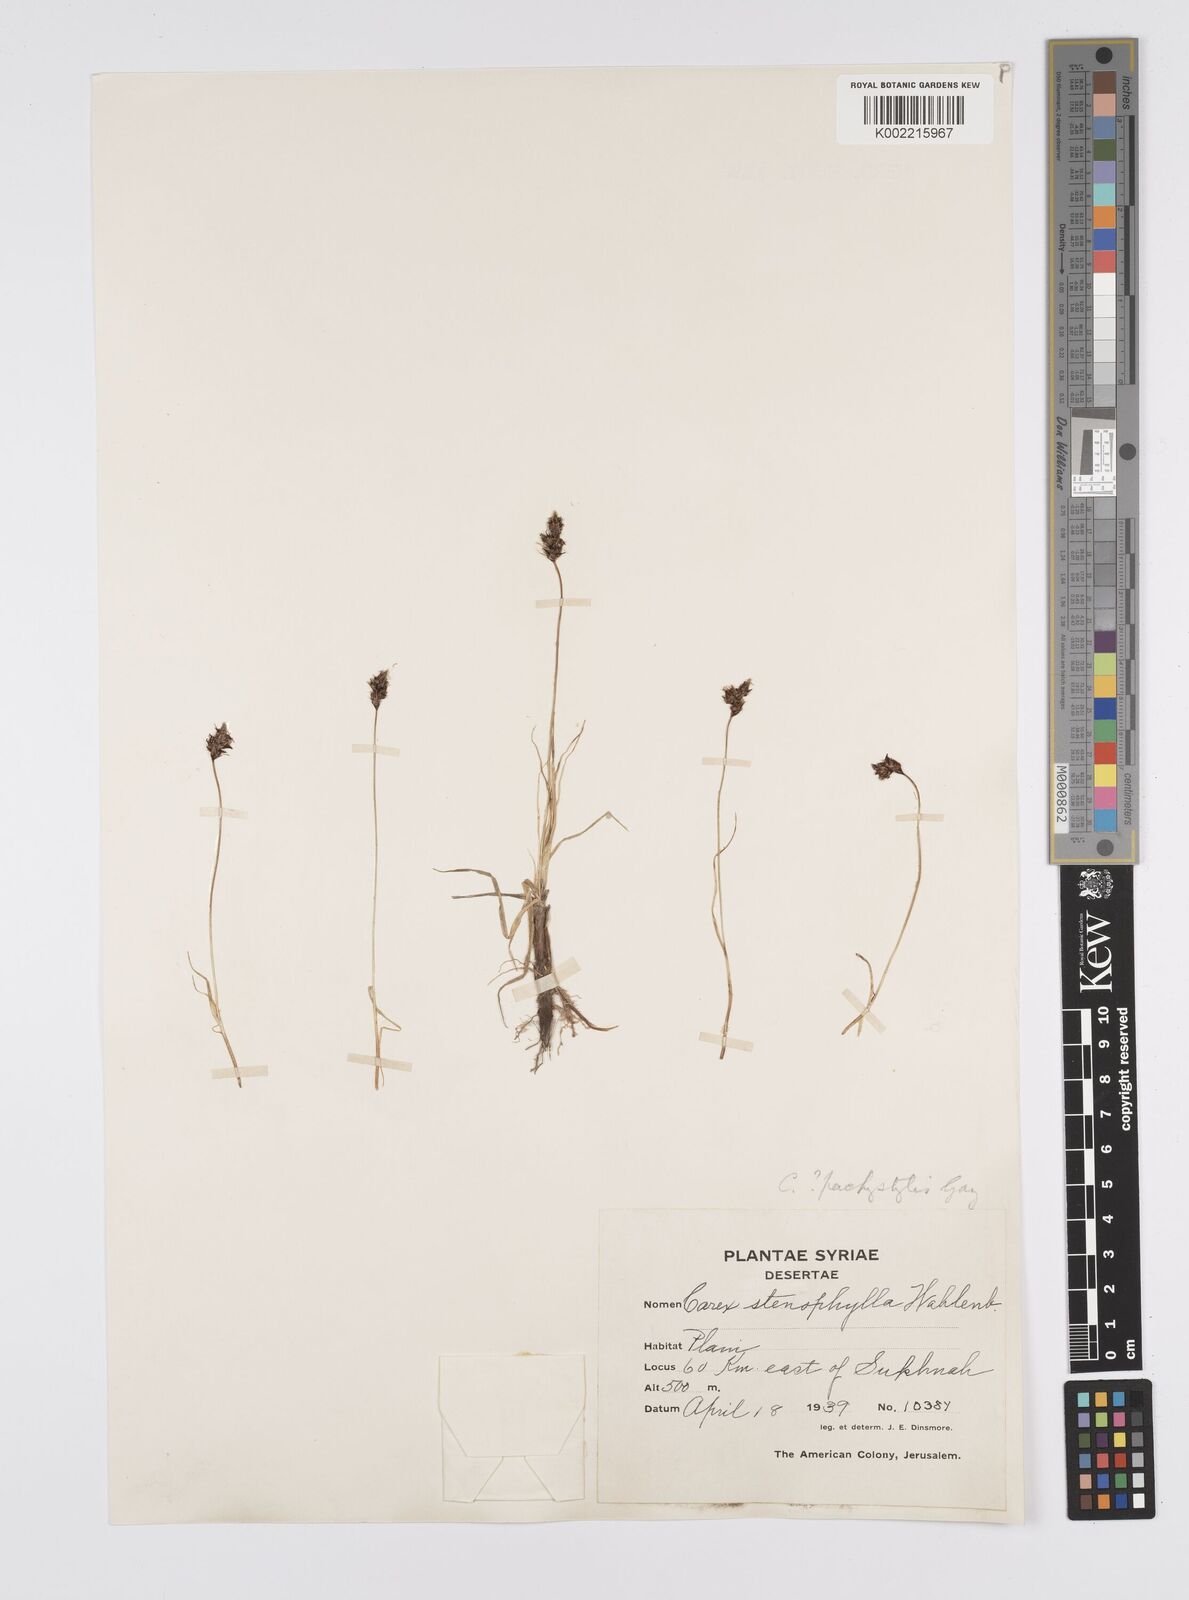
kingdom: Plantae
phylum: Tracheophyta
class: Liliopsida
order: Poales
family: Cyperaceae
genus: Carex
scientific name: Carex pachystylis
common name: Thick-stem sedge
